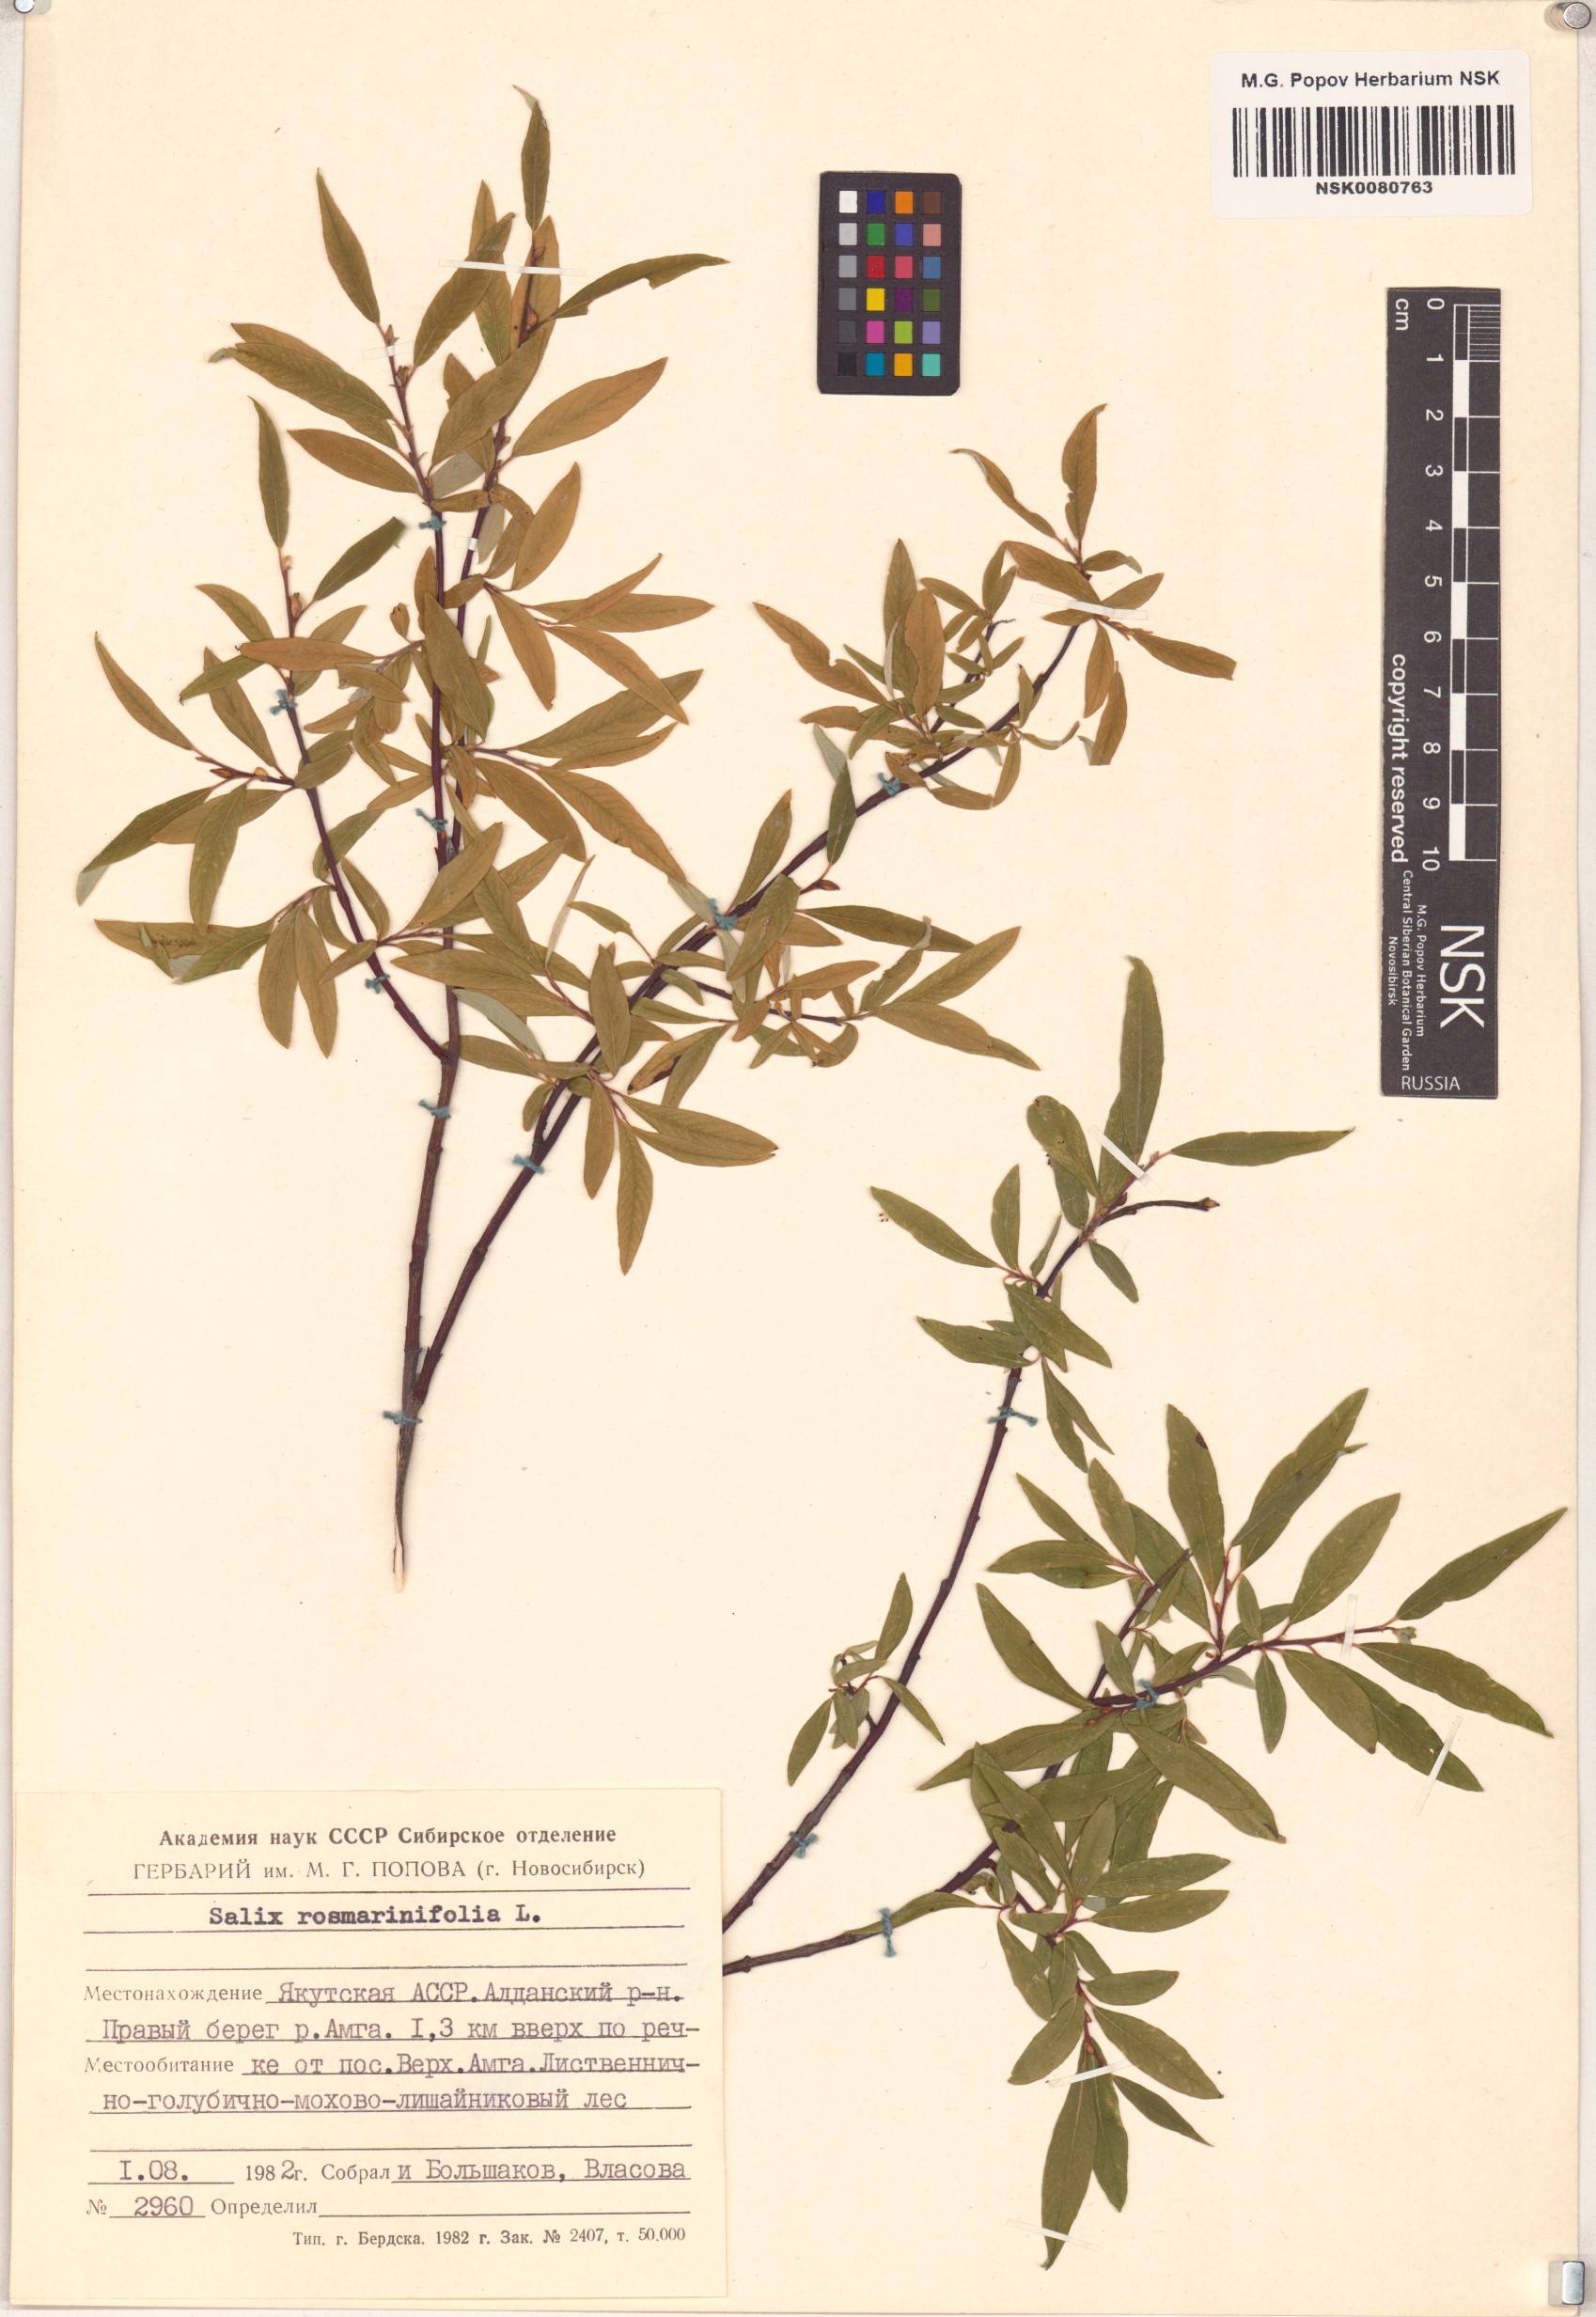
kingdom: Plantae
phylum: Tracheophyta
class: Magnoliopsida
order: Malpighiales
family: Salicaceae
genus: Salix
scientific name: Salix rosmarinifolia
